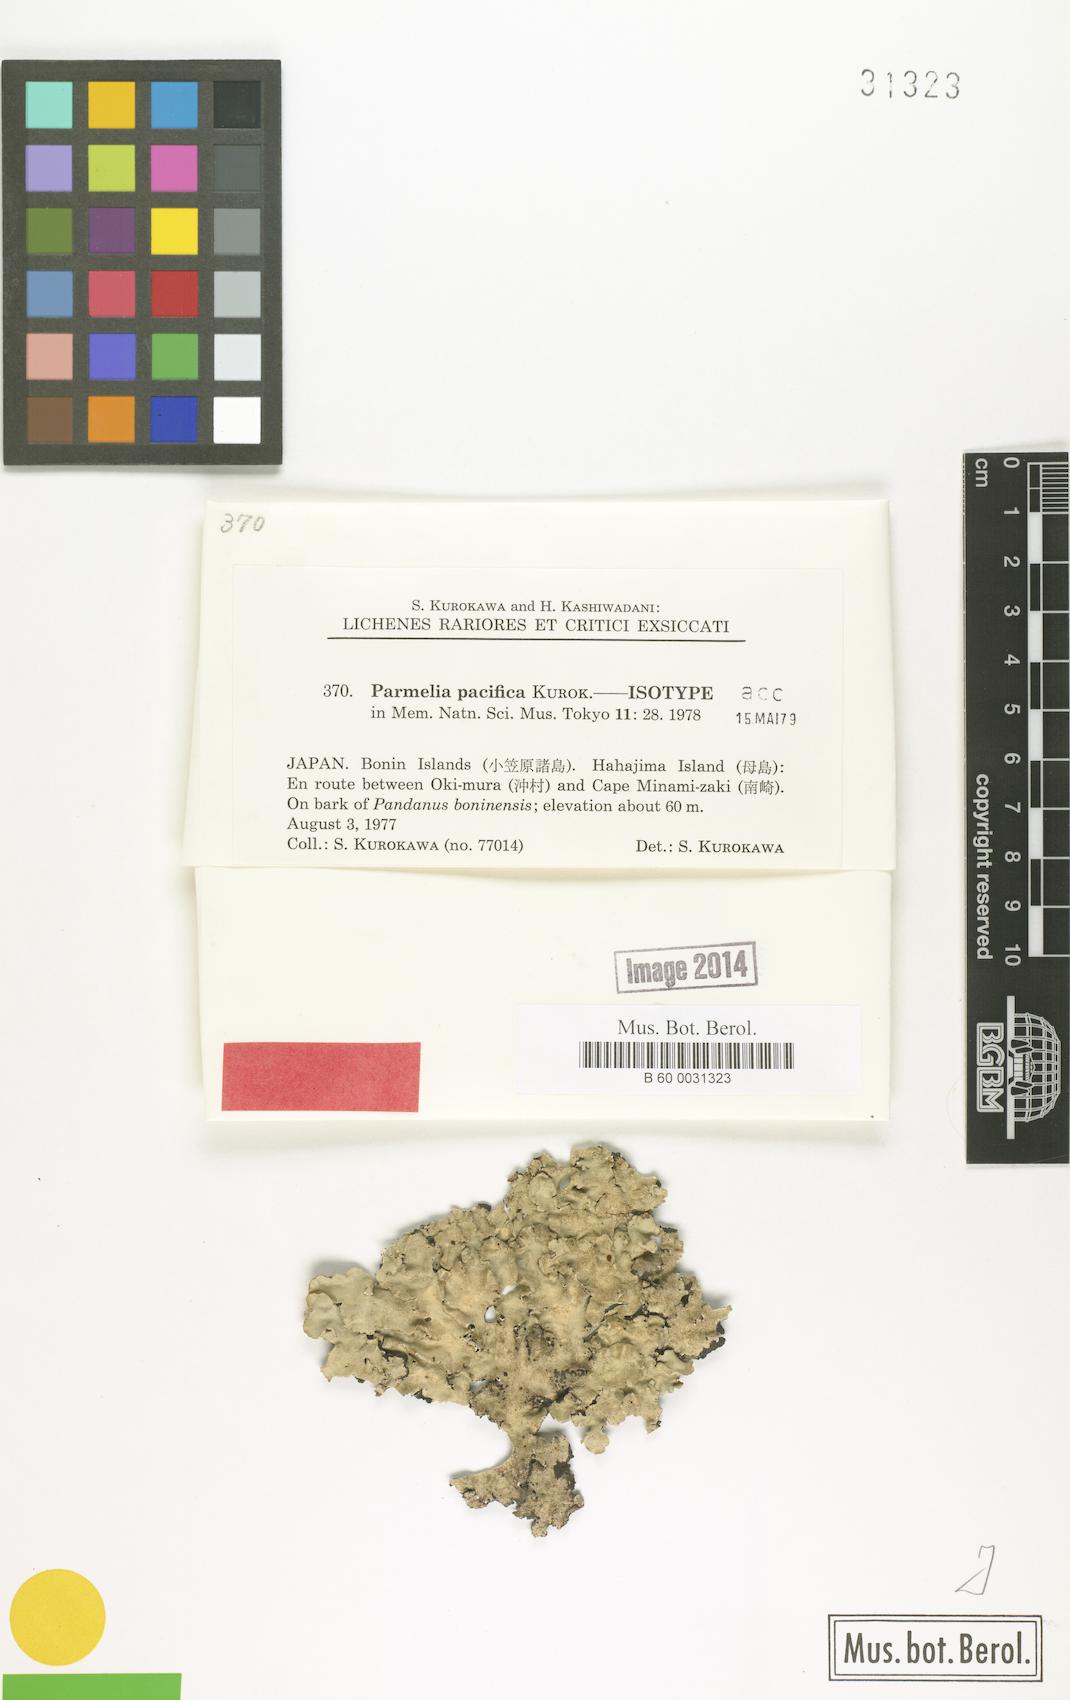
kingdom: Fungi
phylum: Ascomycota
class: Lecanoromycetes
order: Lecanorales
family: Parmeliaceae
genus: Parmotrema
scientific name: Parmotrema pacificum
